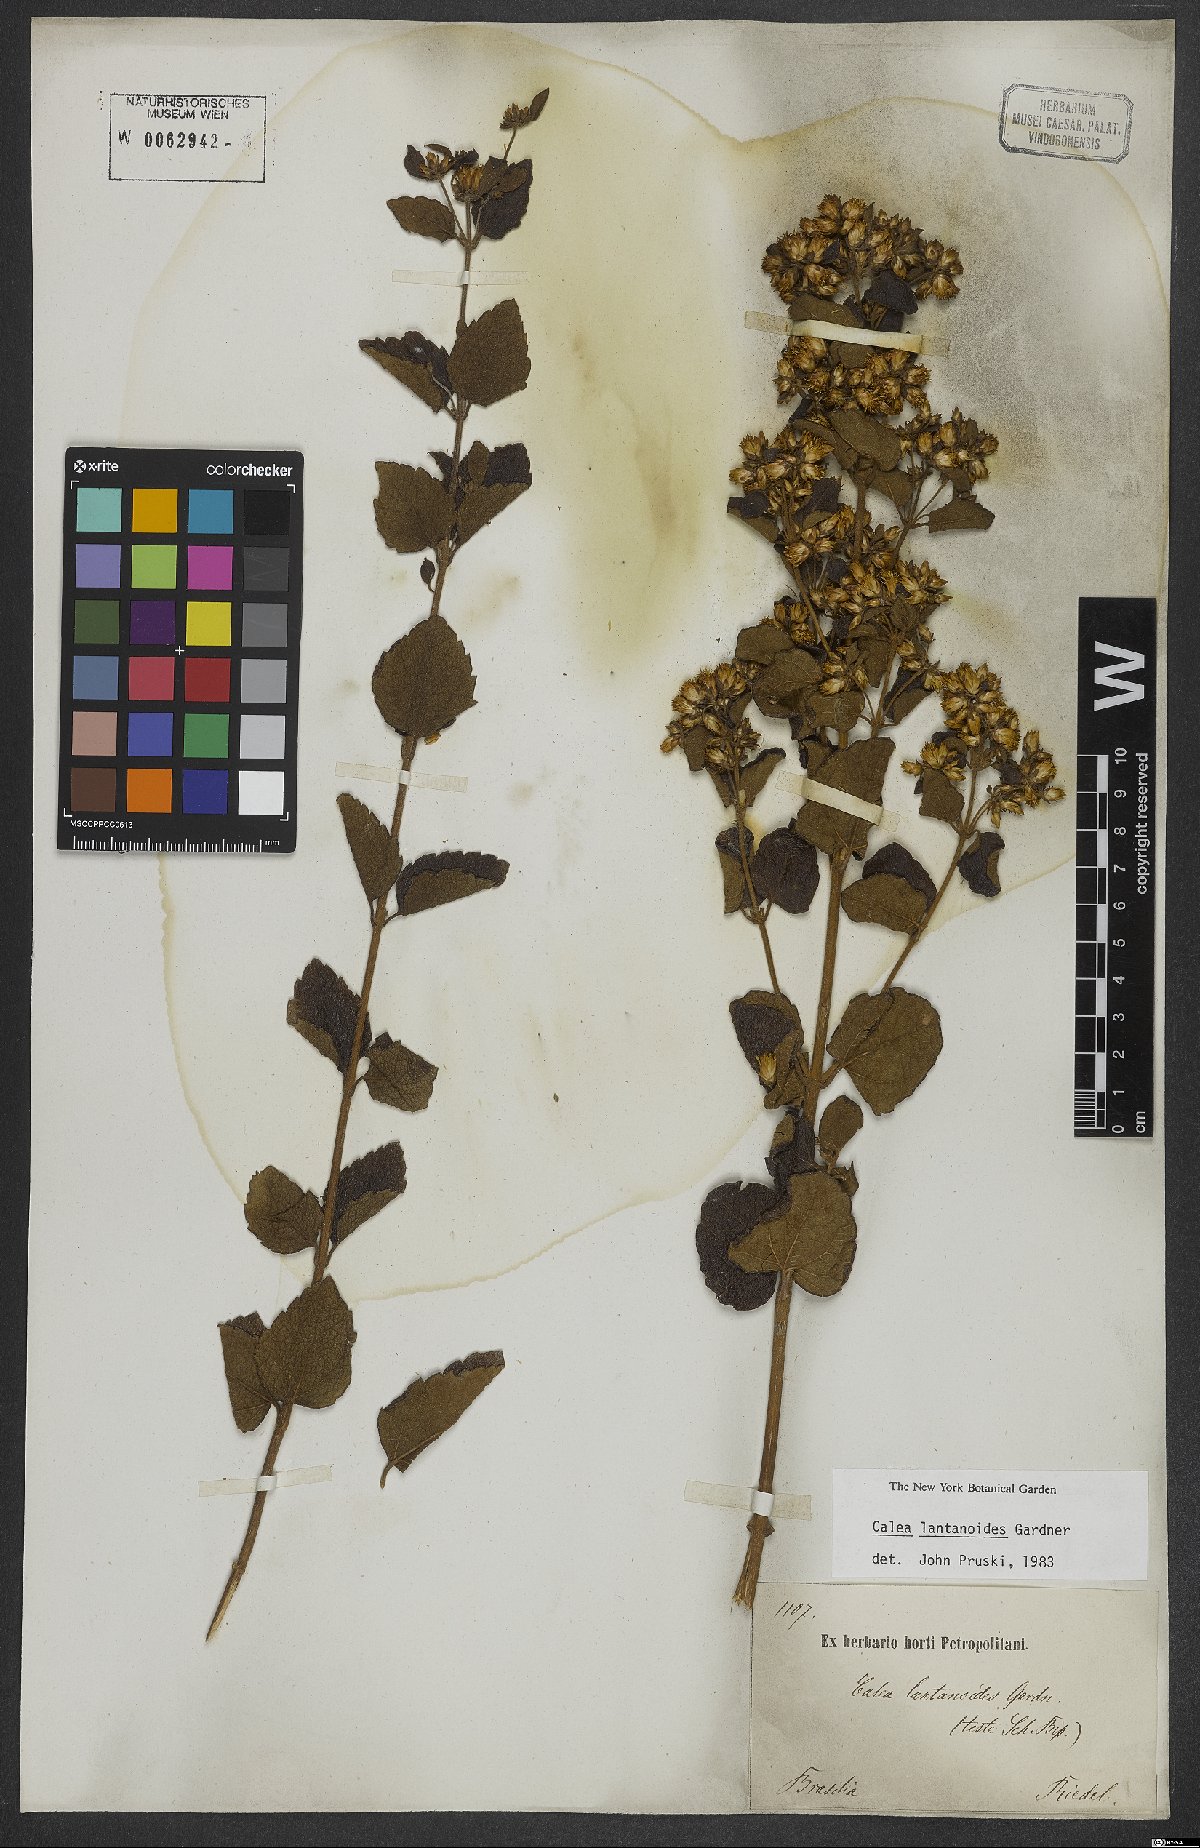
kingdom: Plantae
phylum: Tracheophyta
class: Magnoliopsida
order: Asterales
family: Asteraceae
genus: Calea
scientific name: Calea lantanoides
